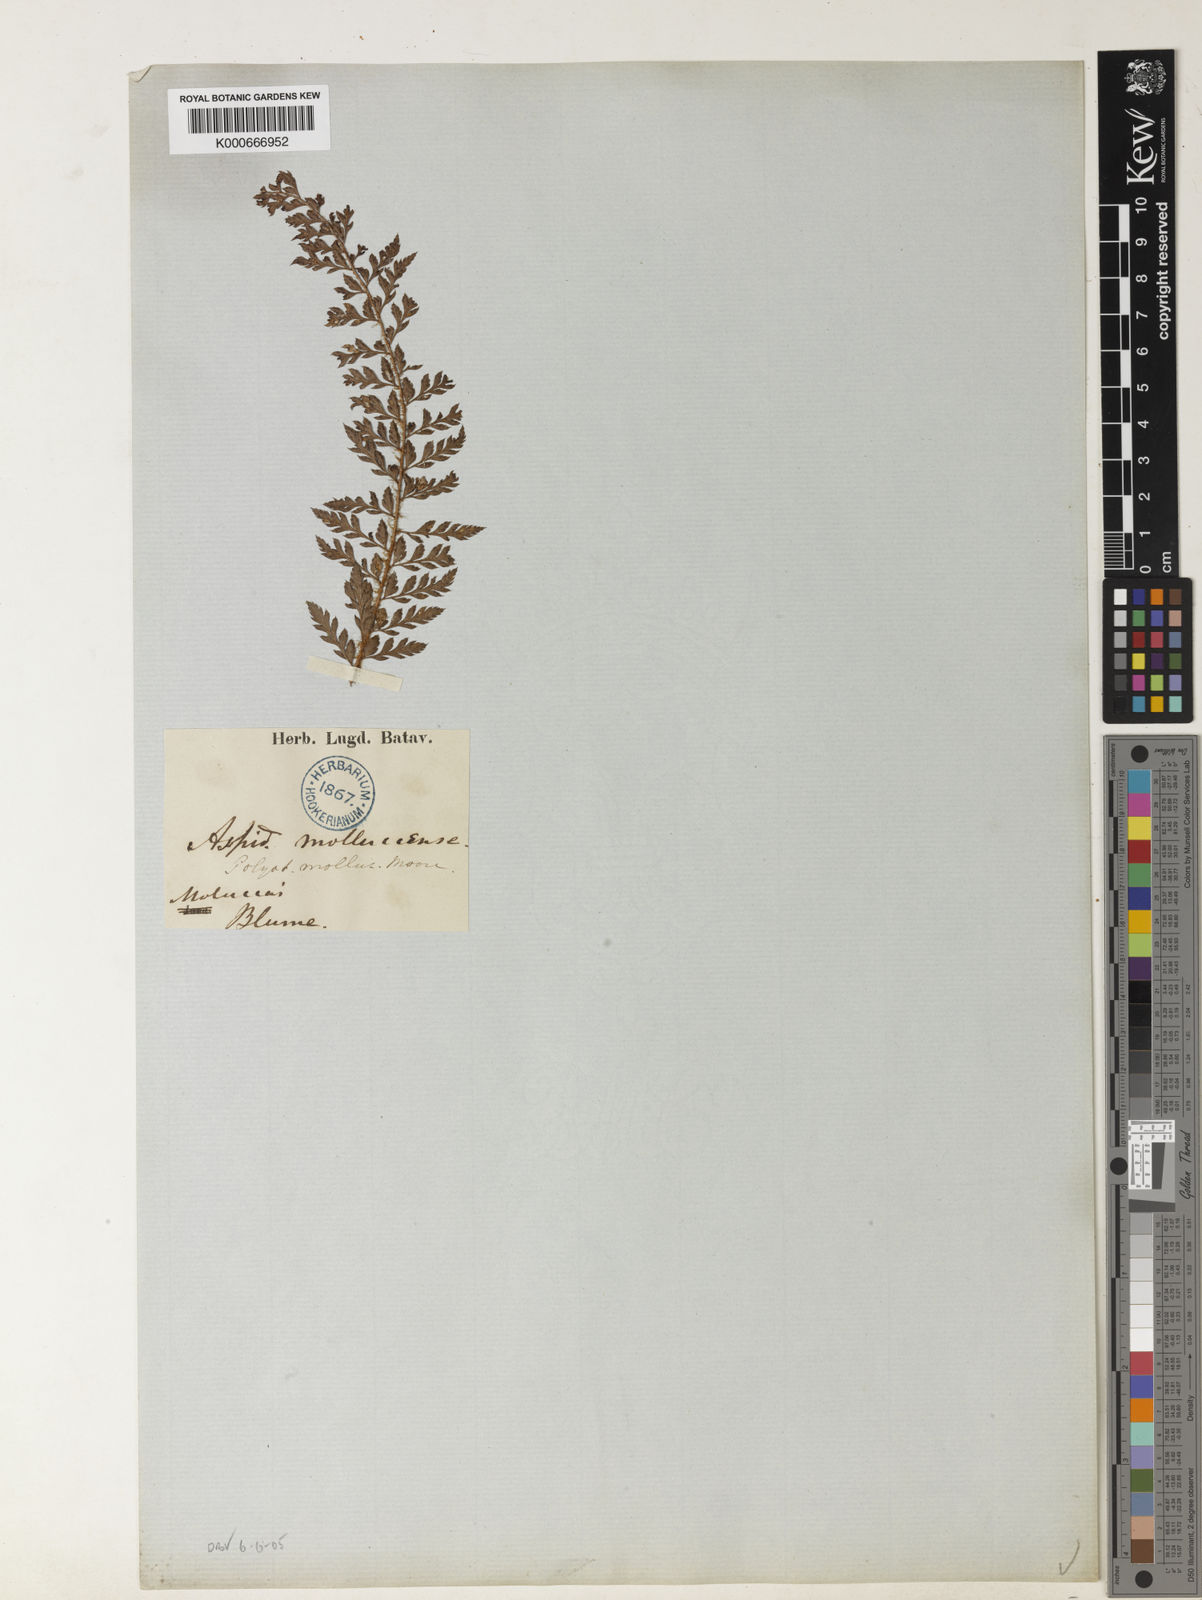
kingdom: Plantae
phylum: Tracheophyta
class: Polypodiopsida
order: Polypodiales
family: Dryopteridaceae
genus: Polystichum
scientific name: Polystichum moluccense
